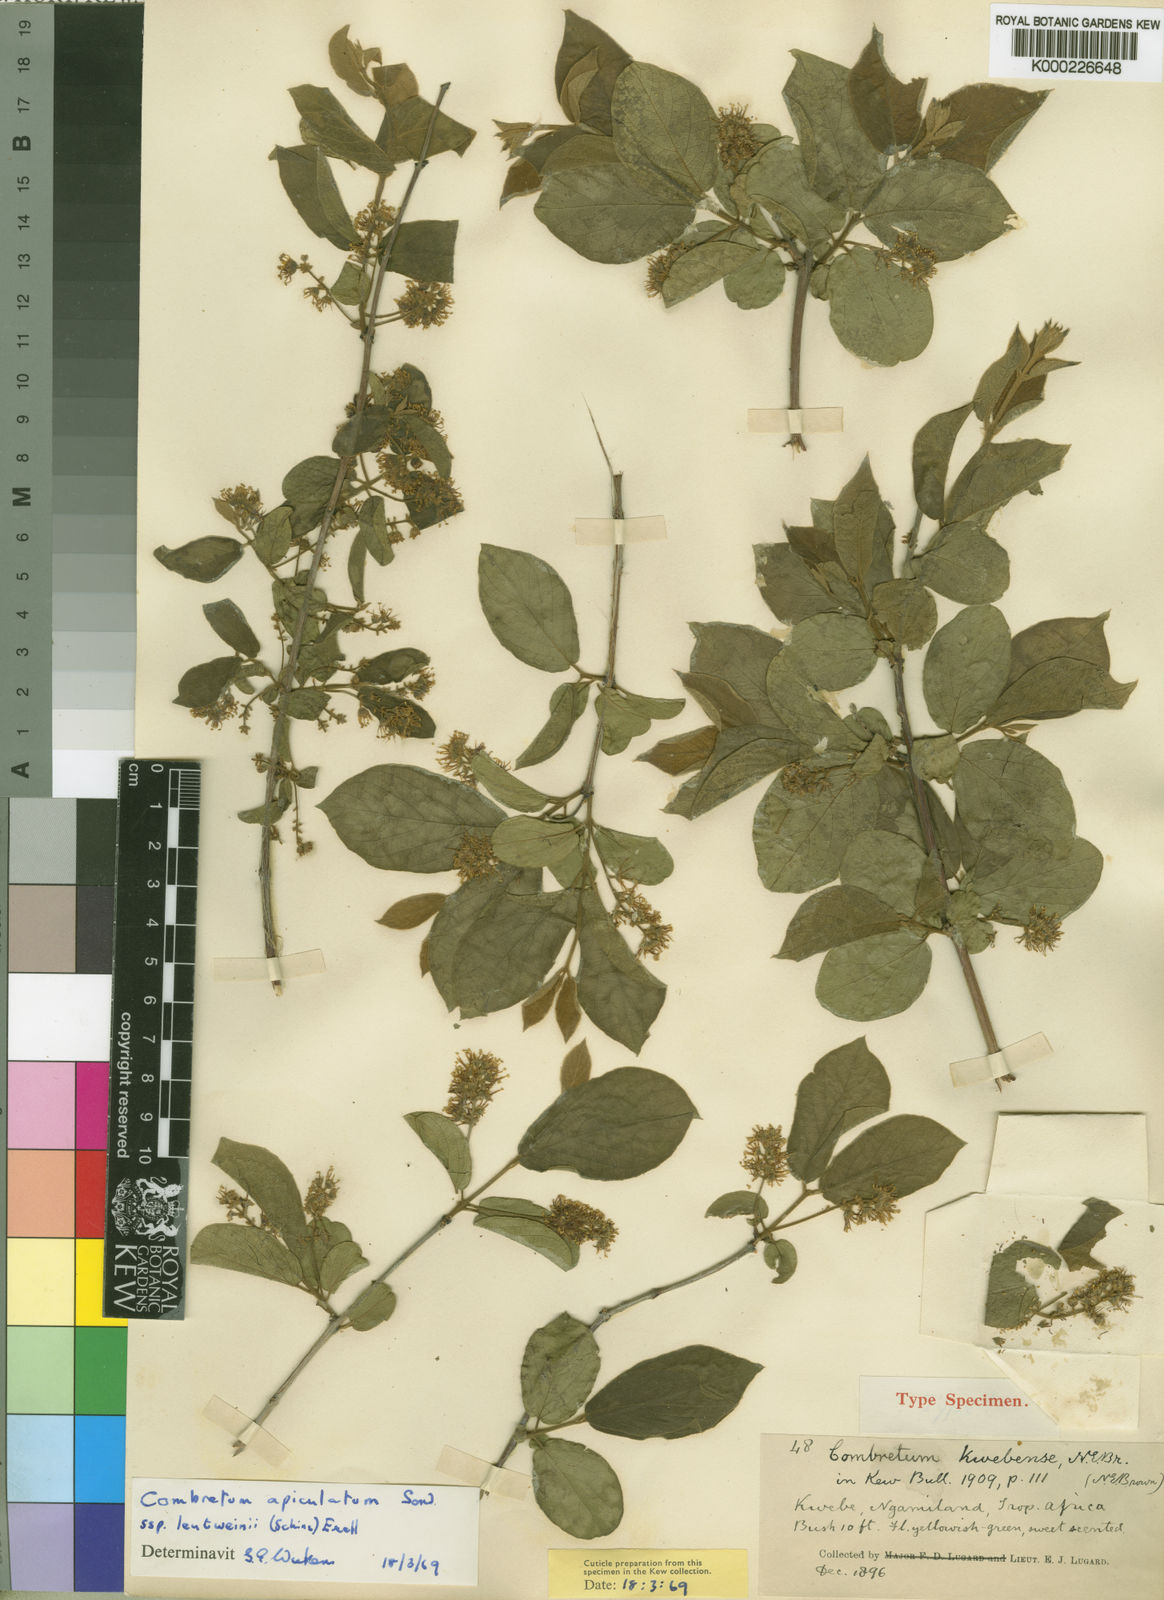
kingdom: Plantae
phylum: Tracheophyta
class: Magnoliopsida
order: Myrtales
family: Combretaceae
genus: Combretum
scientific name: Combretum apiculatum
